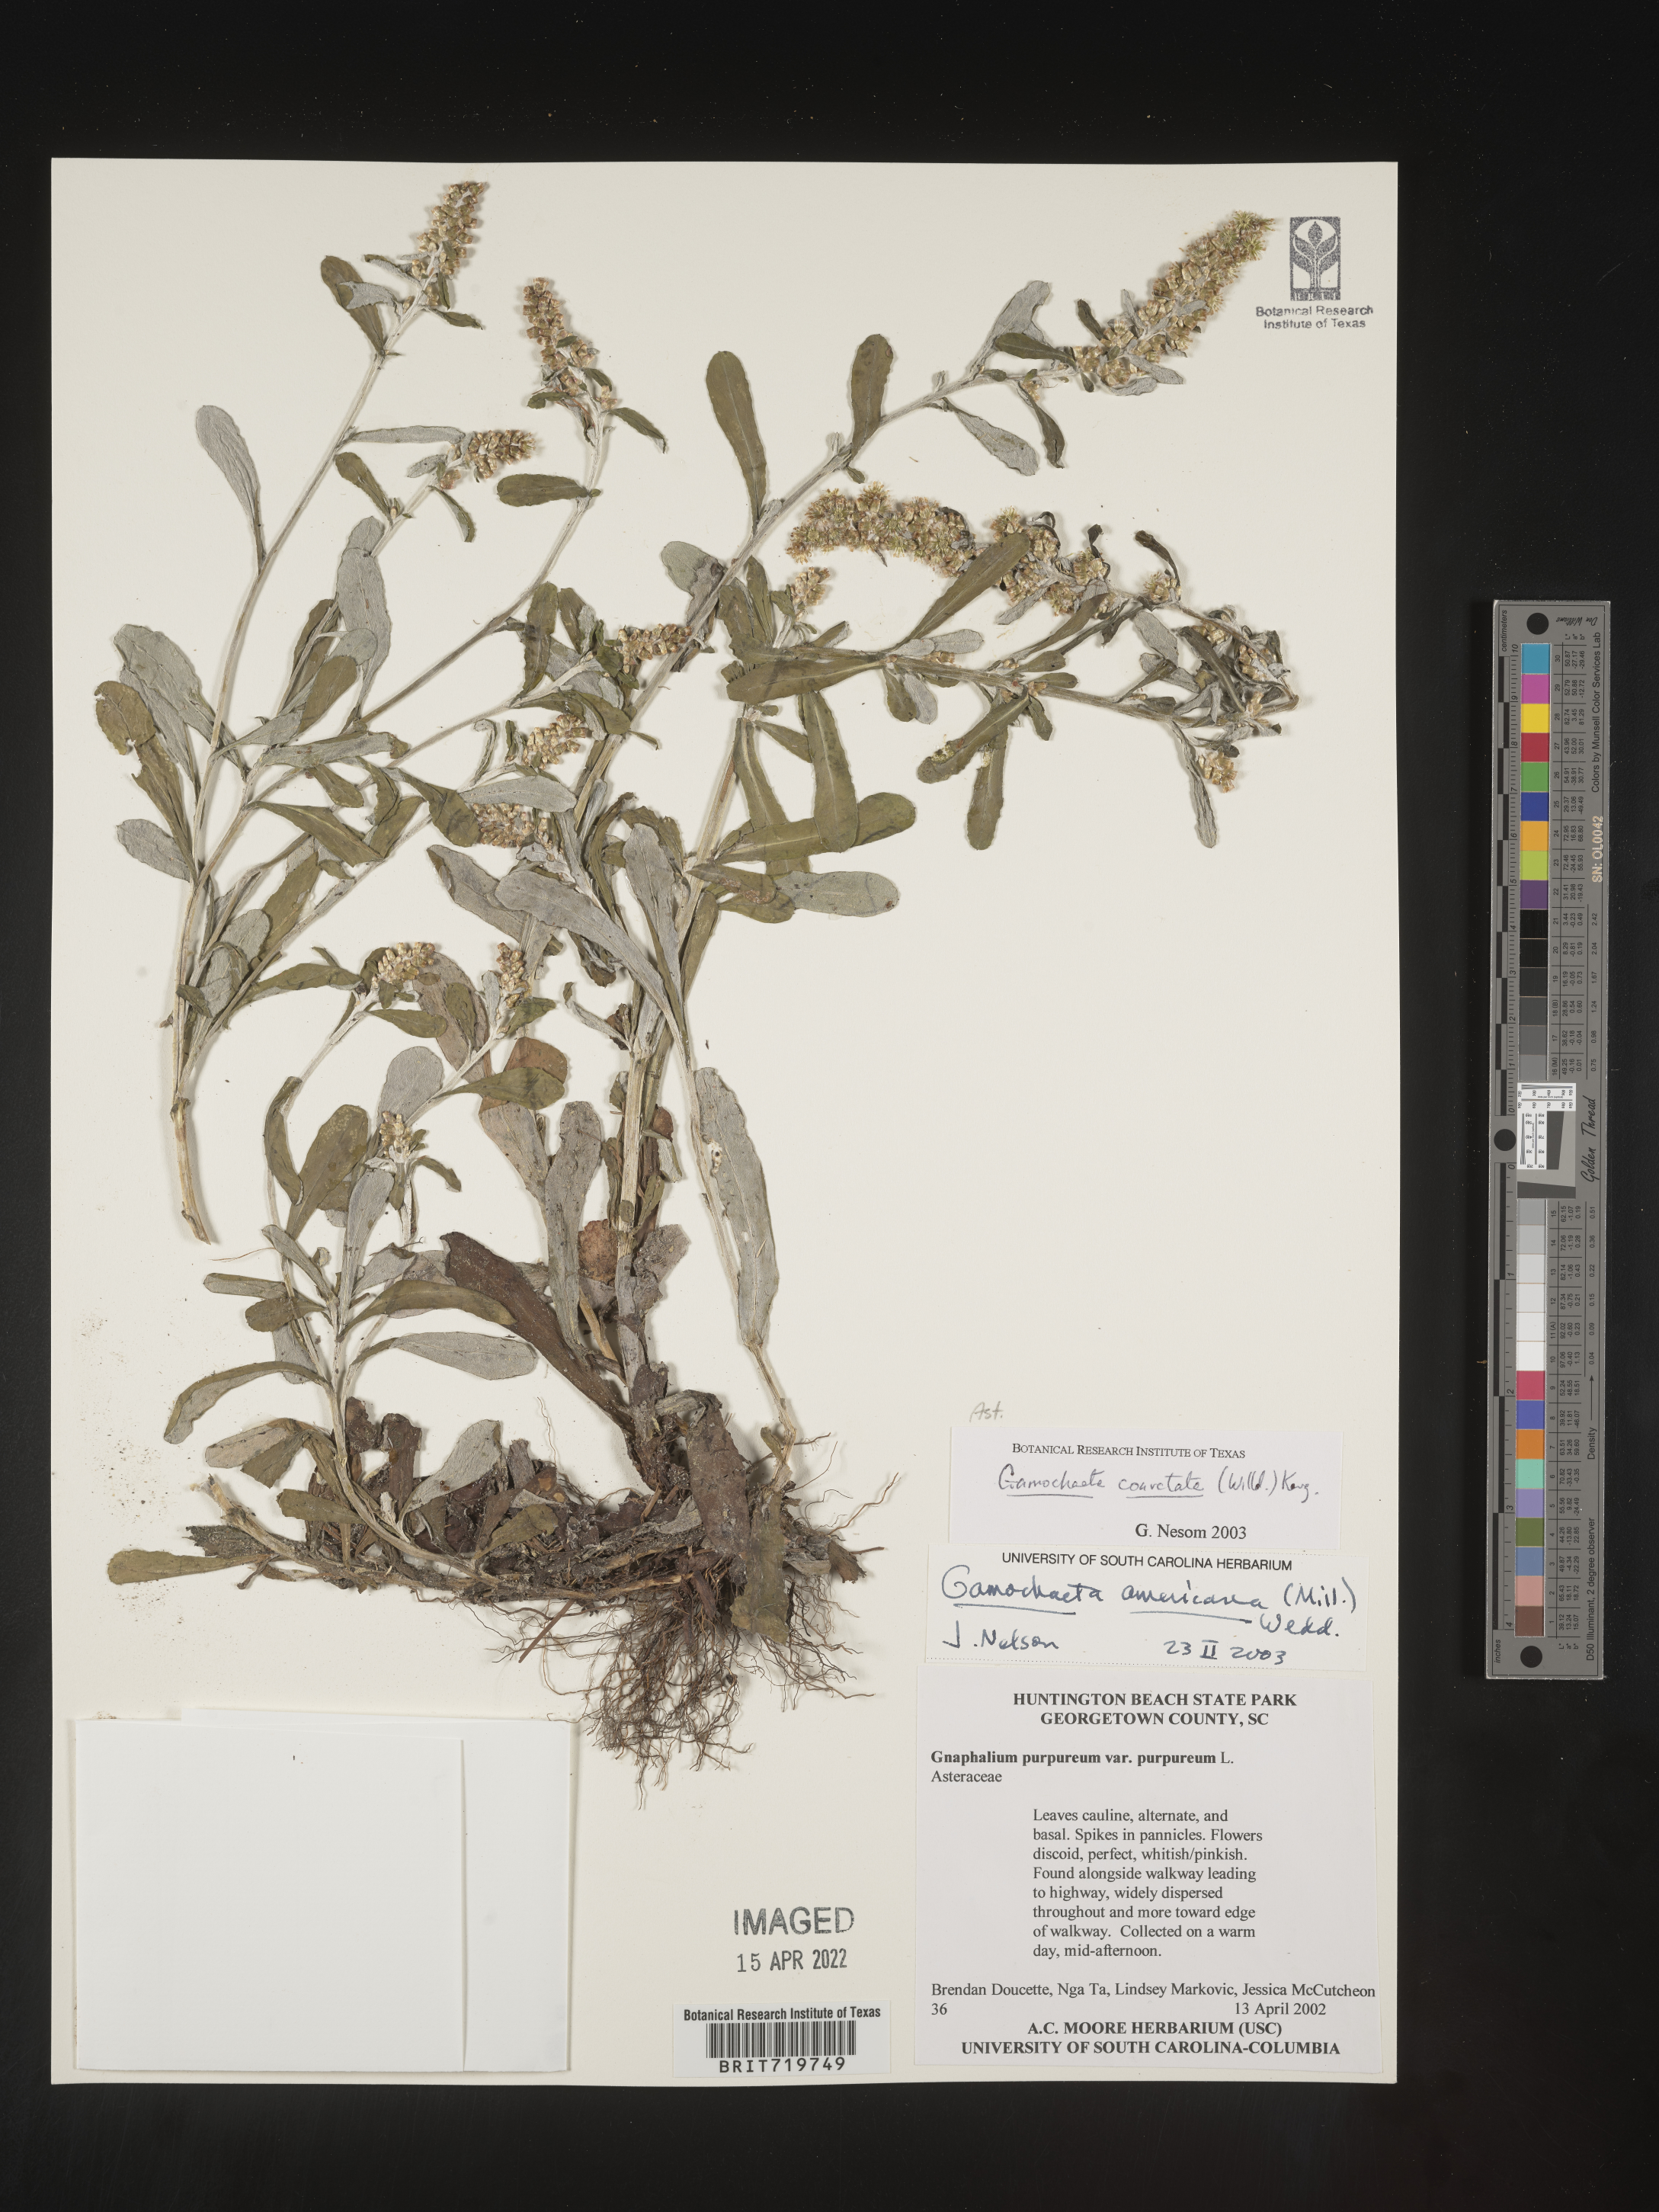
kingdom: Plantae
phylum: Tracheophyta
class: Magnoliopsida
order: Asterales
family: Asteraceae
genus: Gamochaeta
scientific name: Gamochaeta americana
